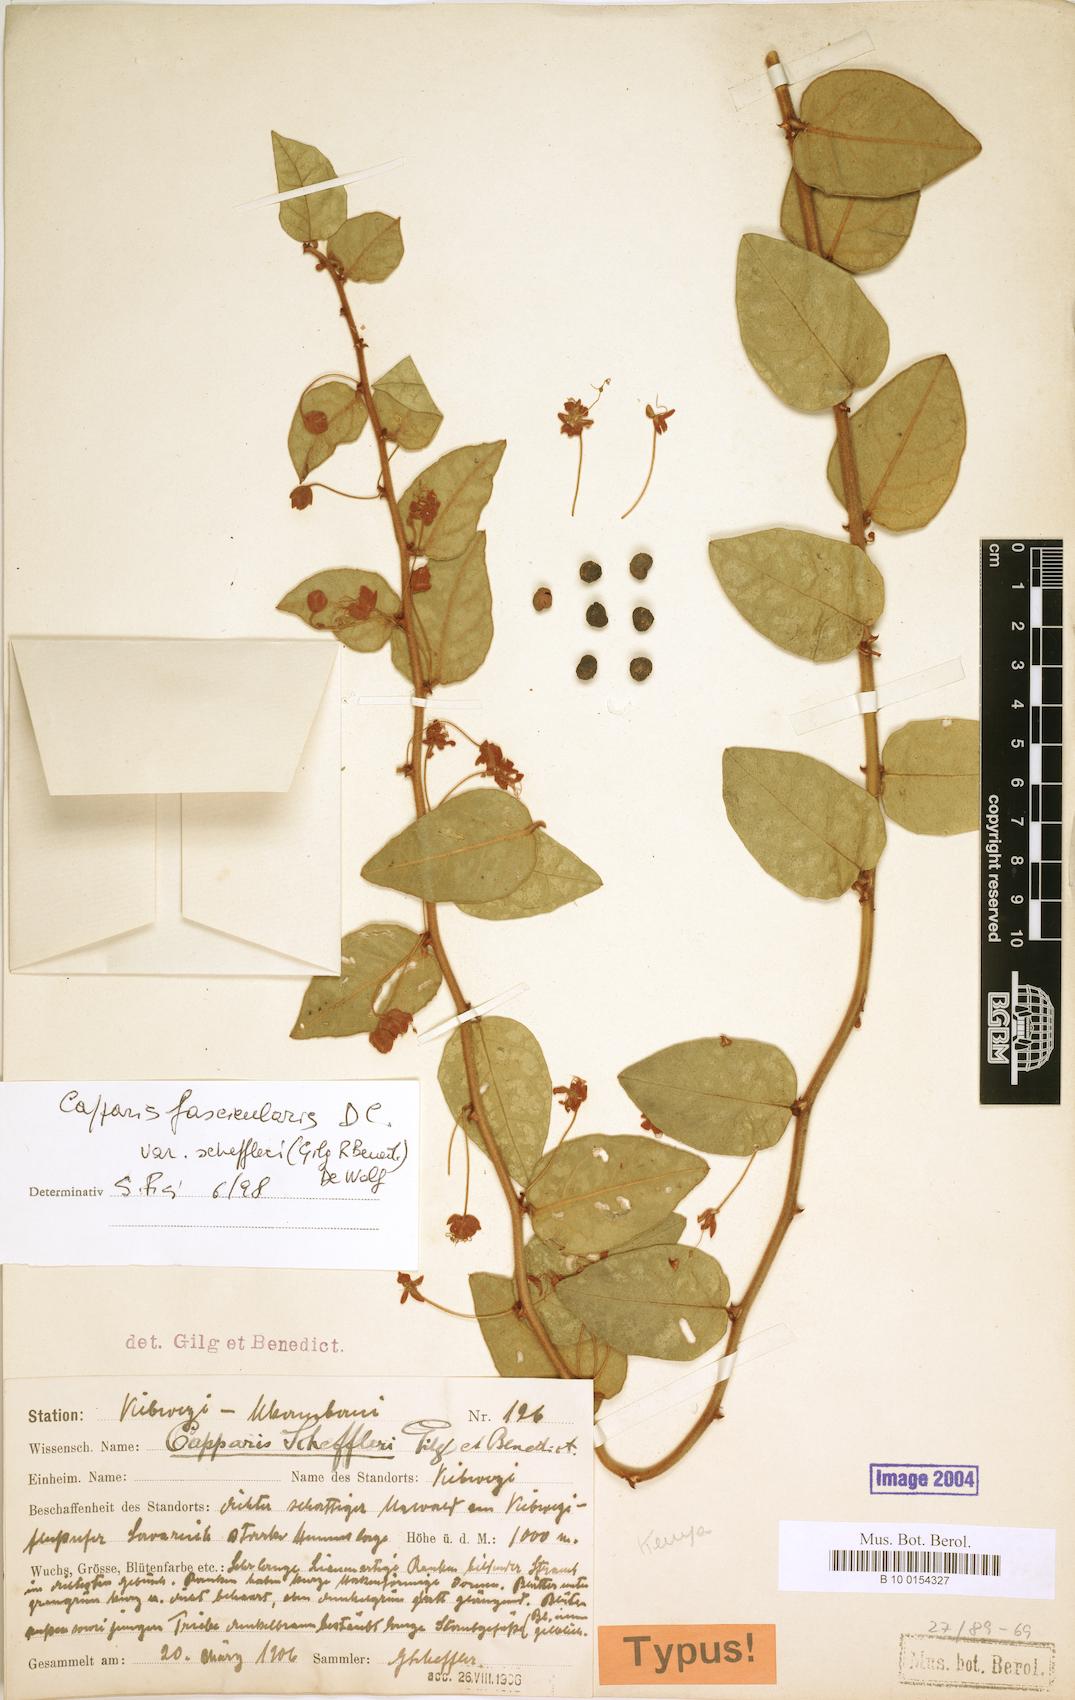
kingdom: Plantae
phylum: Tracheophyta
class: Magnoliopsida
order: Brassicales
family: Capparaceae
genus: Capparis
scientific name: Capparis fascicularis
